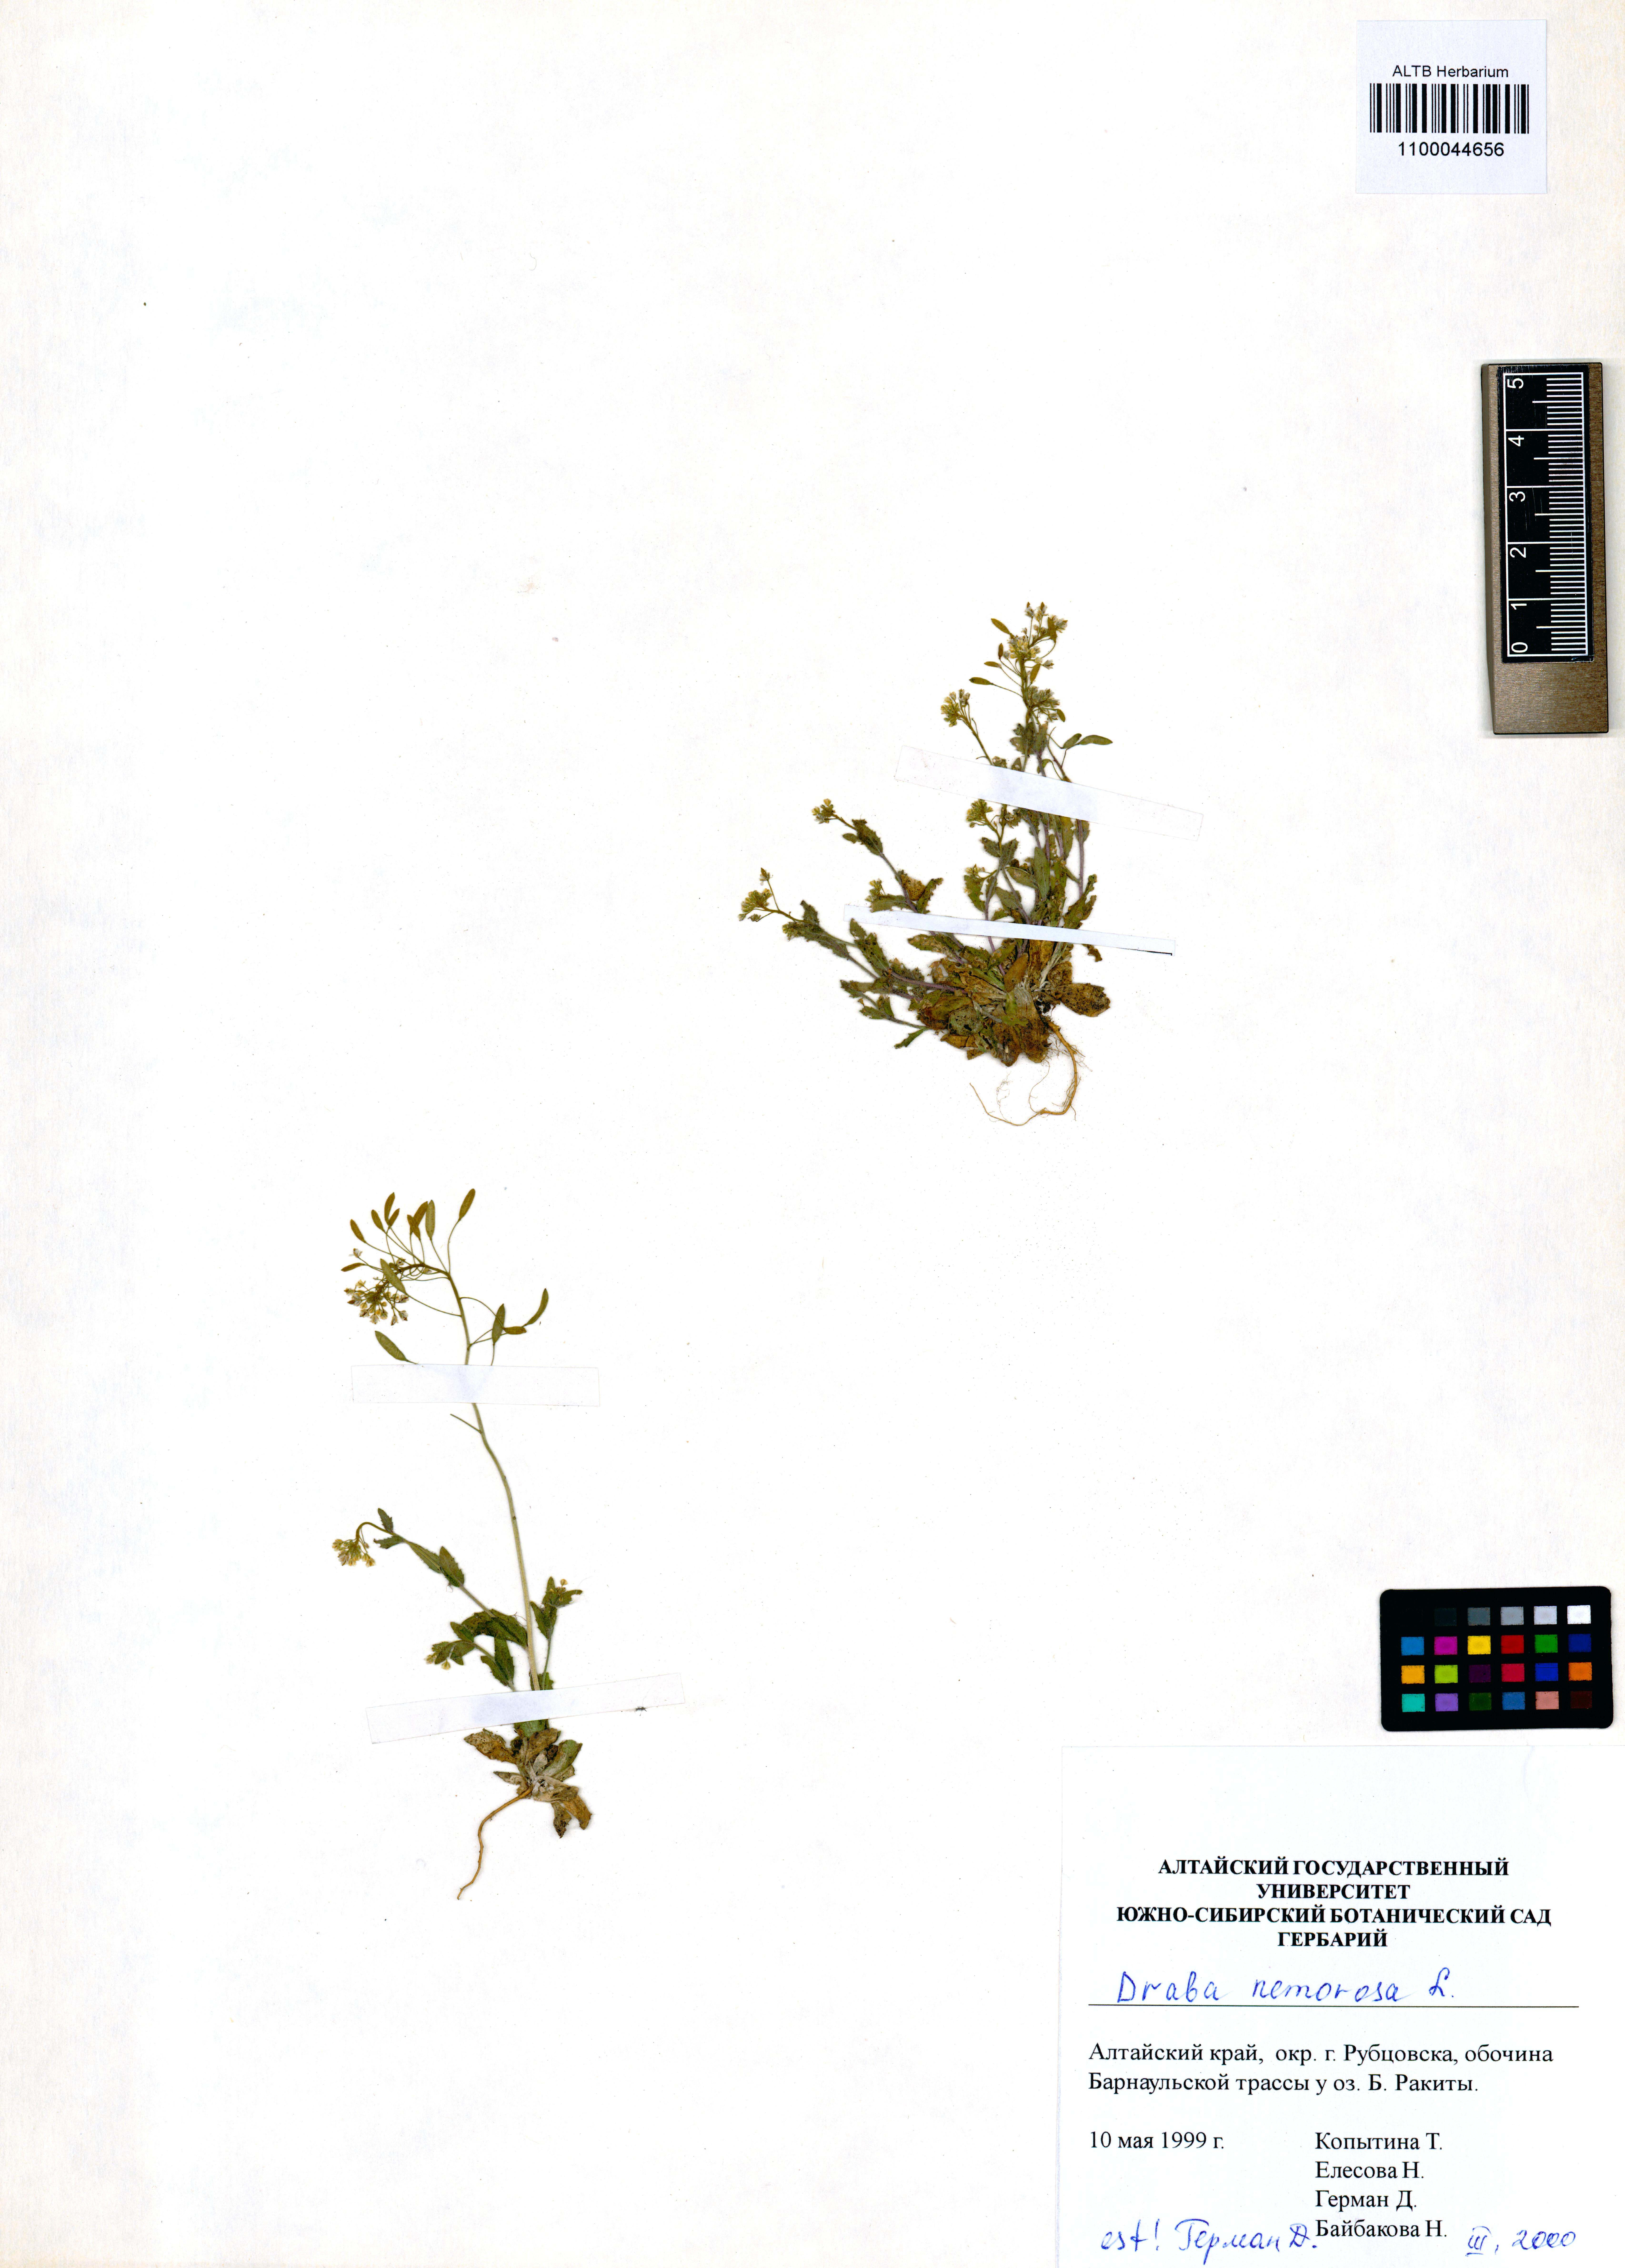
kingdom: Plantae
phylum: Tracheophyta
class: Magnoliopsida
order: Brassicales
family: Brassicaceae
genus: Draba
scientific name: Draba nemorosa
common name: Wood whitlow-grass
